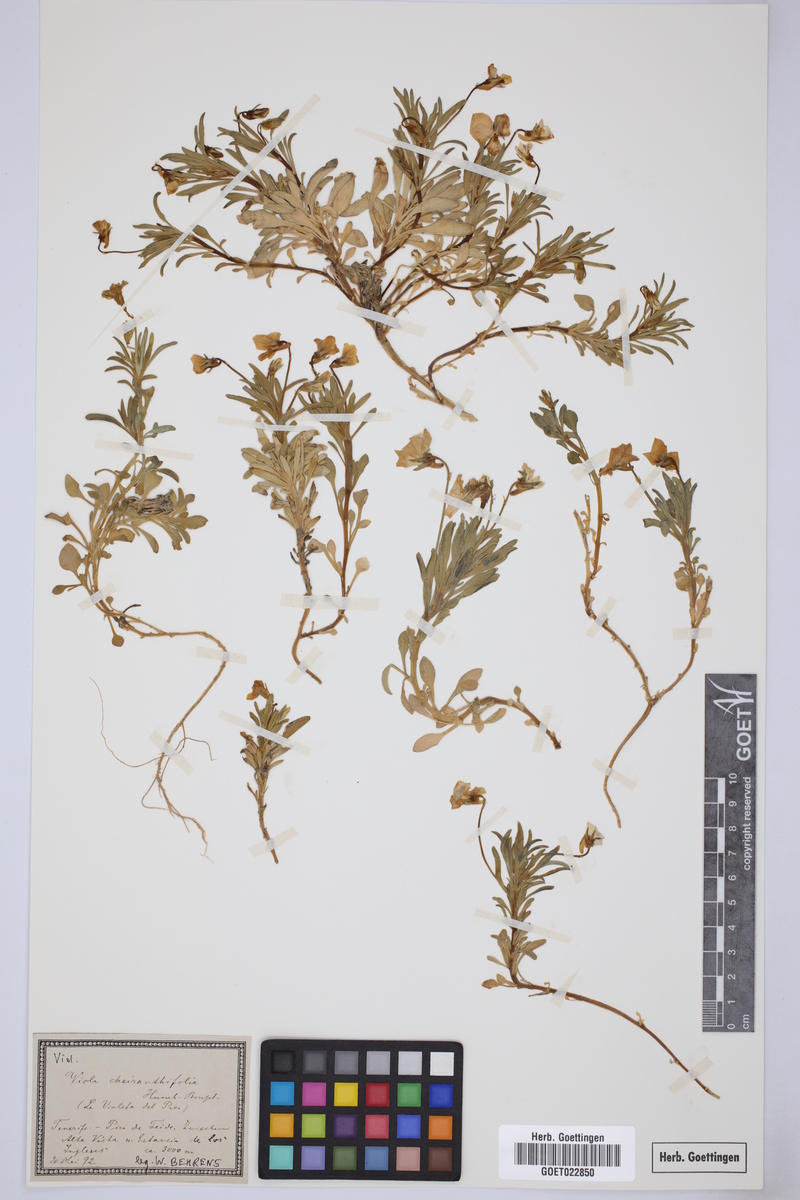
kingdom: Plantae
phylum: Tracheophyta
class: Magnoliopsida
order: Malpighiales
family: Violaceae
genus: Viola
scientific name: Viola cheiranthifolia
